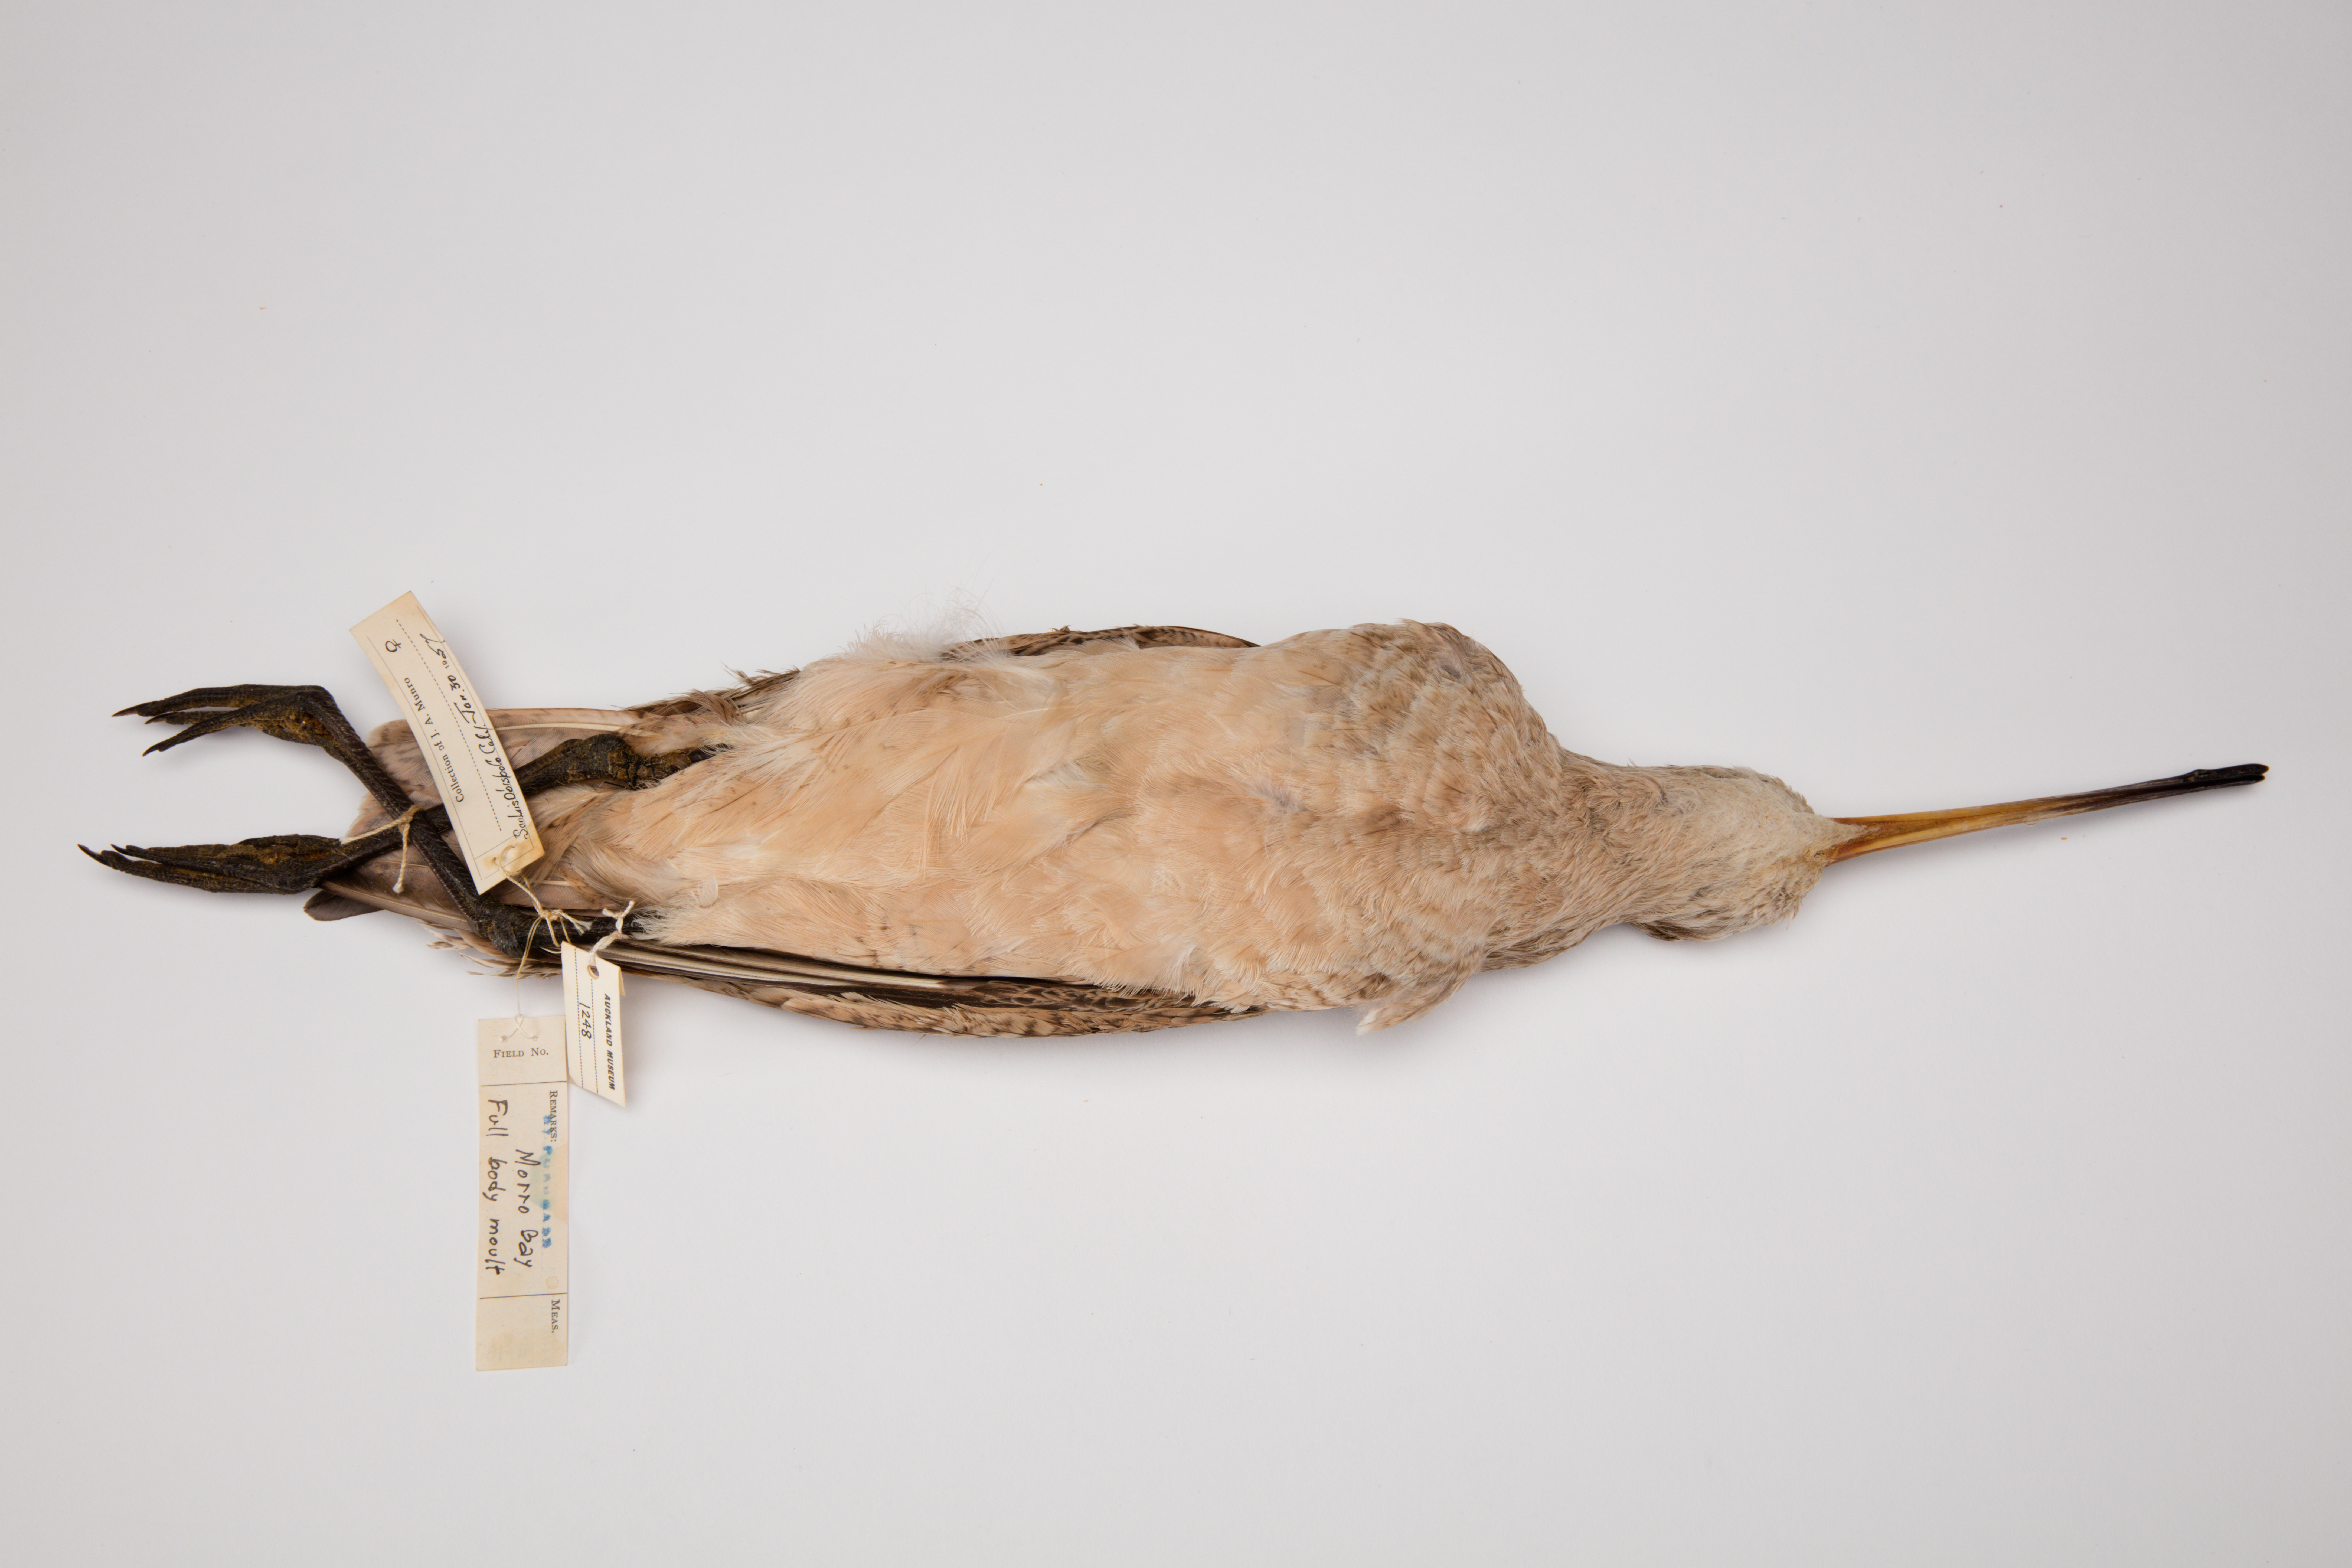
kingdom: Animalia
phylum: Chordata
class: Aves
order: Charadriiformes
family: Scolopacidae
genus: Limosa
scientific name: Limosa fedoa
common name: Marbled godwit
